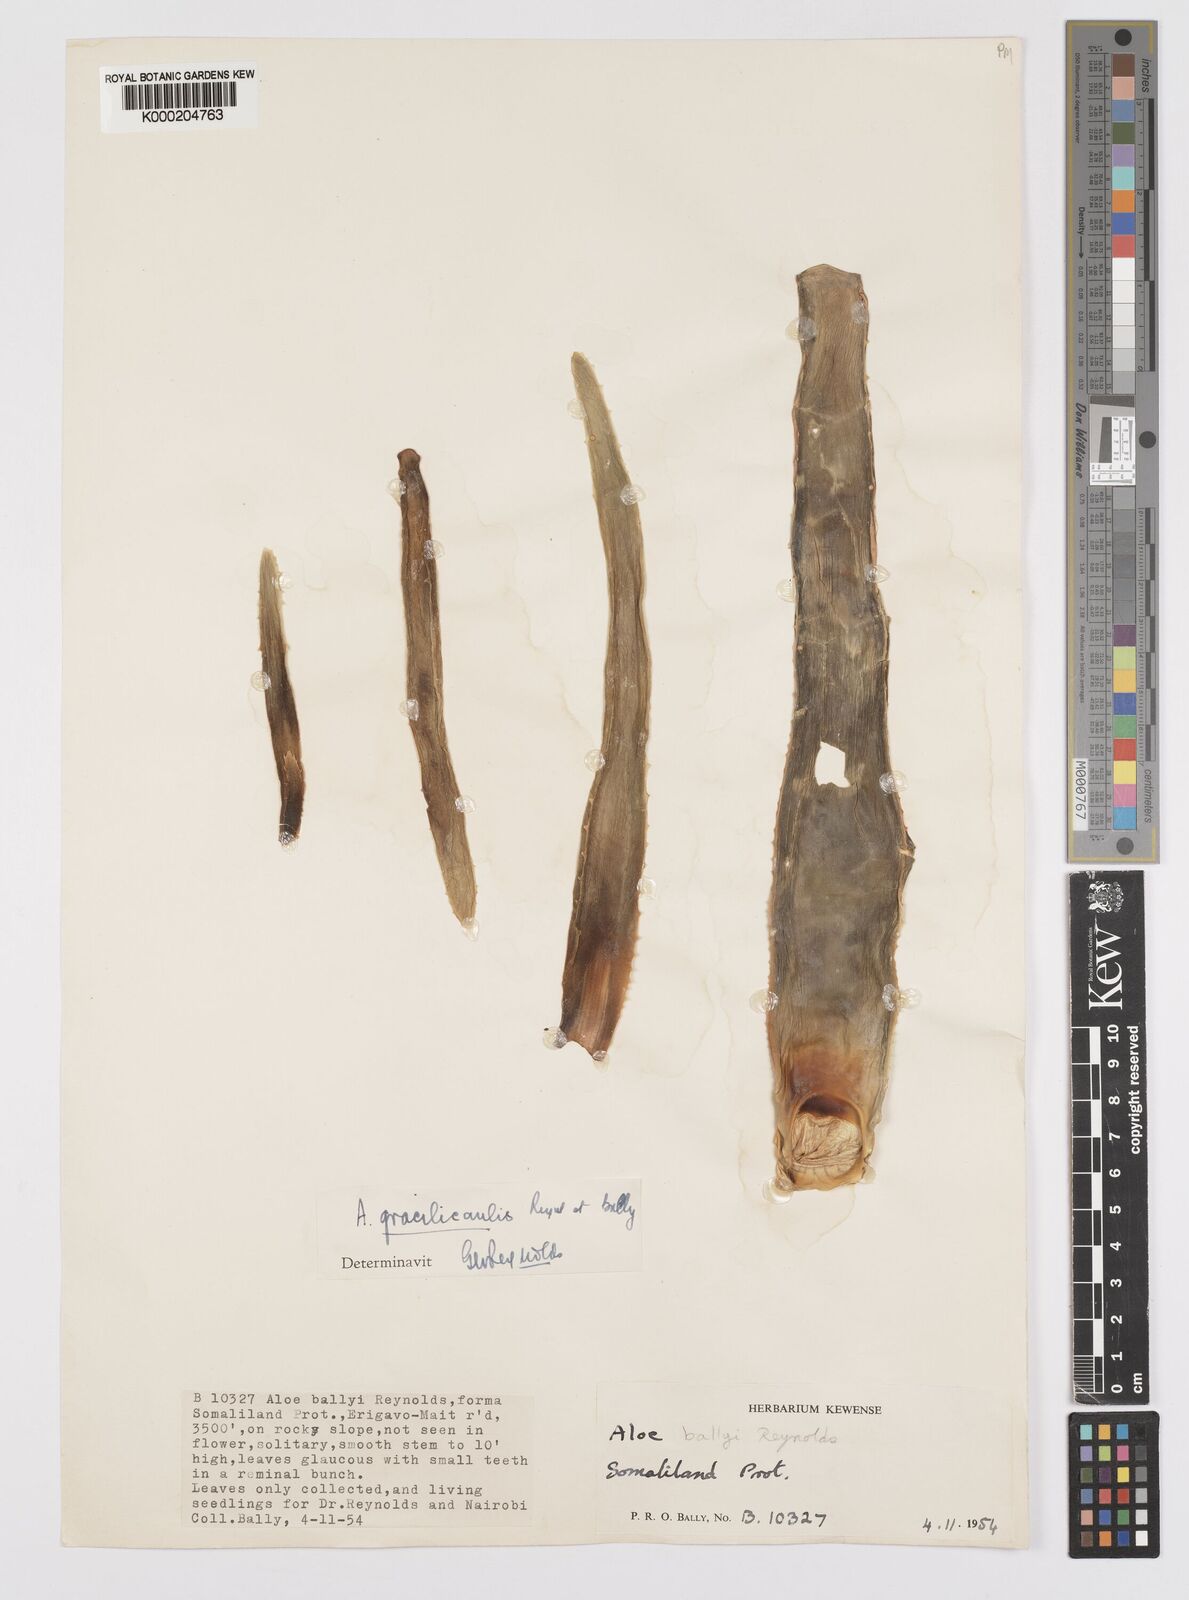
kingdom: Plantae
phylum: Tracheophyta
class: Liliopsida
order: Asparagales
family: Asphodelaceae
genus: Aloe
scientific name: Aloe gracilicaulis
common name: Soft distant sword-leaved aloe
